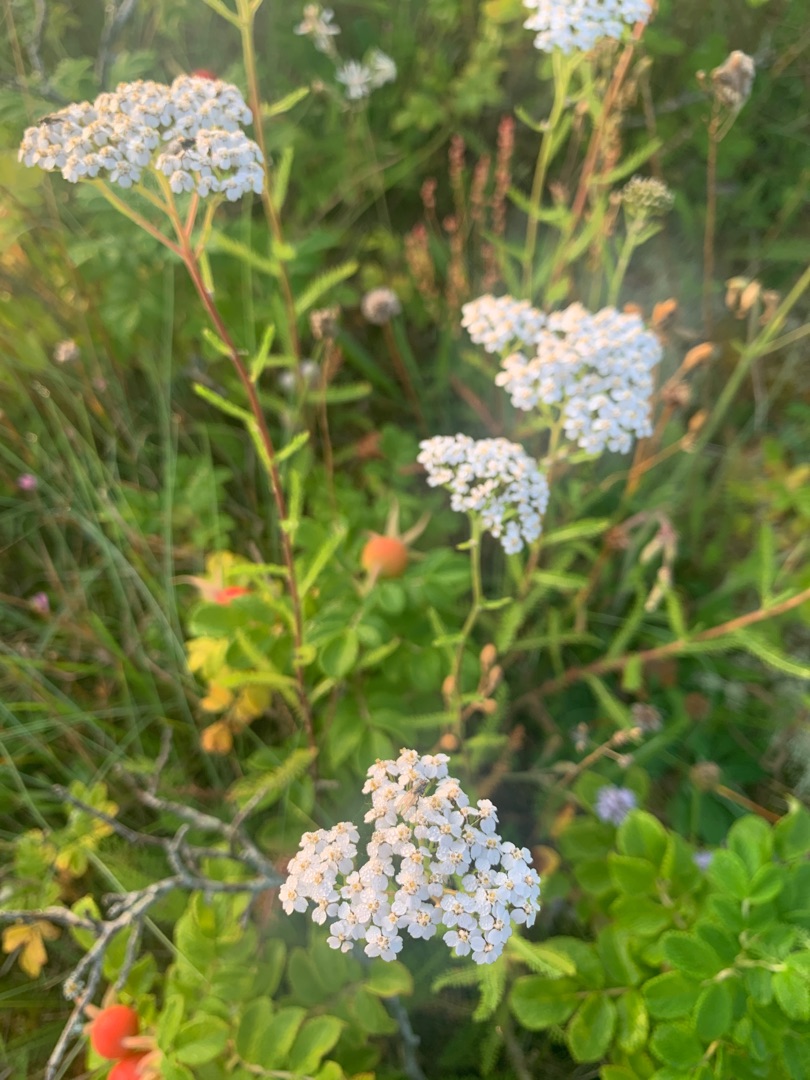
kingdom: Plantae
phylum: Tracheophyta
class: Magnoliopsida
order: Asterales
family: Asteraceae
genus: Achillea
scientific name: Achillea millefolium
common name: Almindelig røllike
